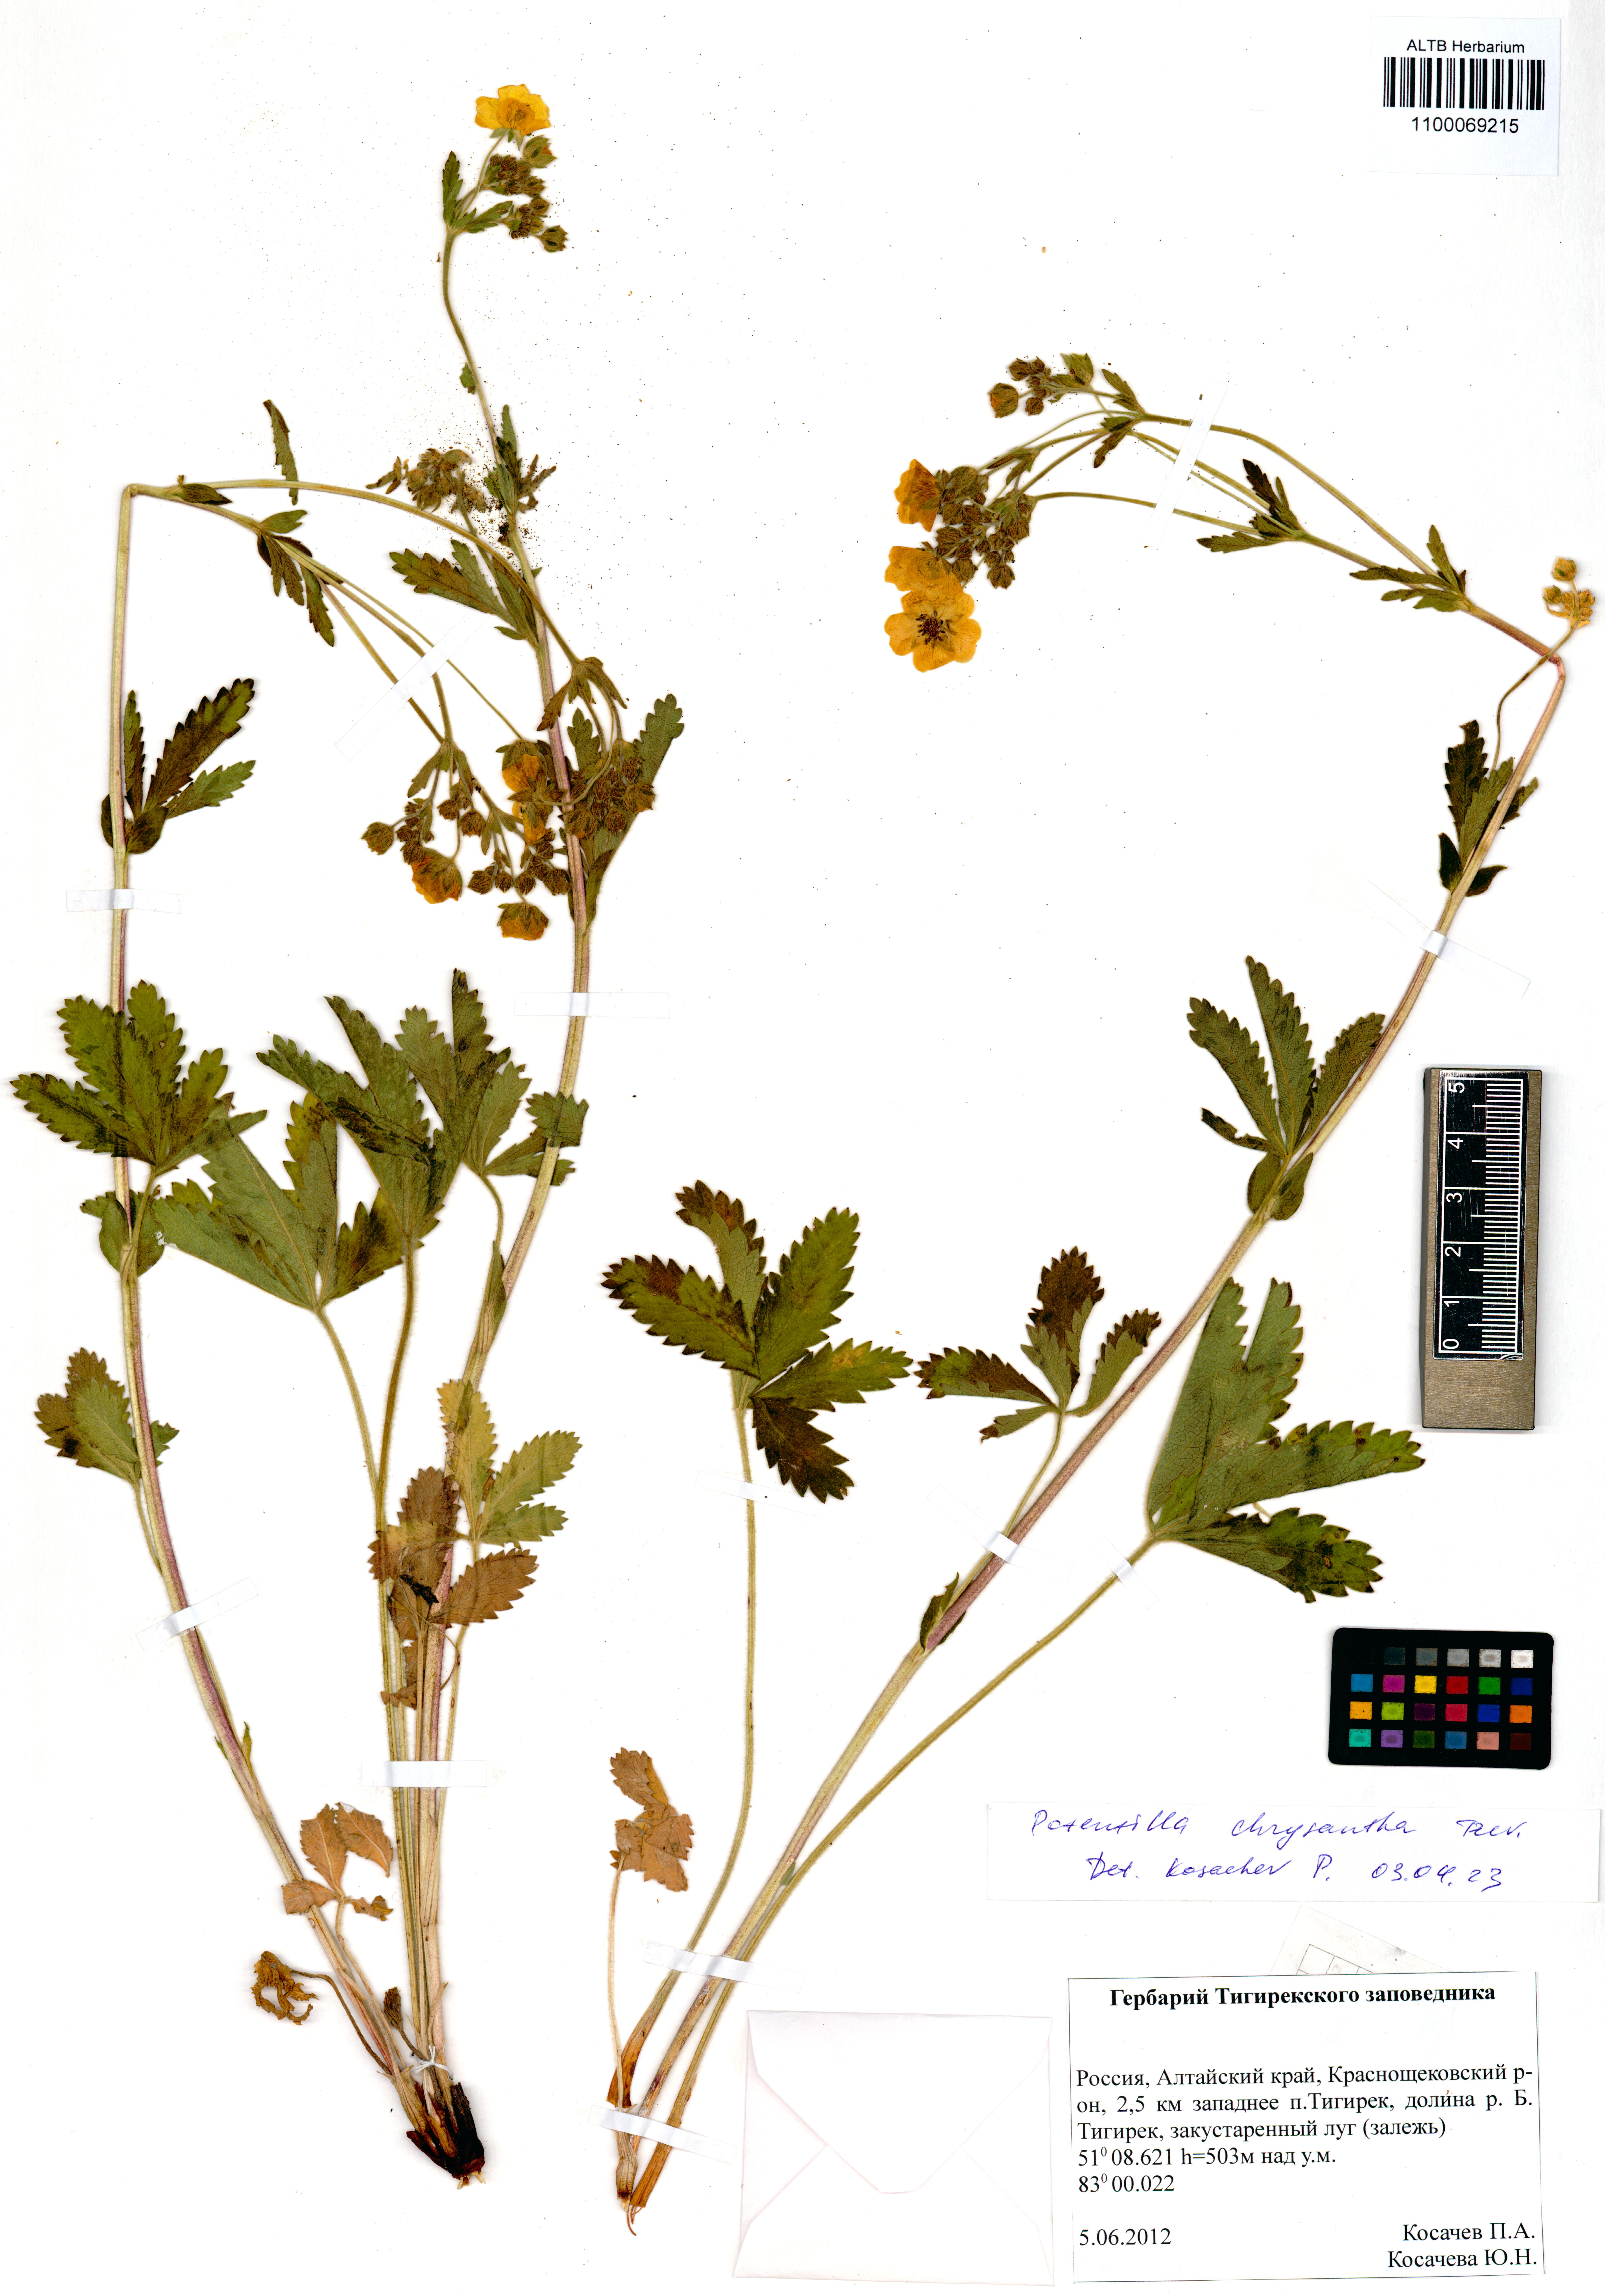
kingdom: Plantae
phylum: Tracheophyta
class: Magnoliopsida
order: Rosales
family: Rosaceae
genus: Potentilla
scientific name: Potentilla chrysantha
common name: Thuringian cinquefoil
